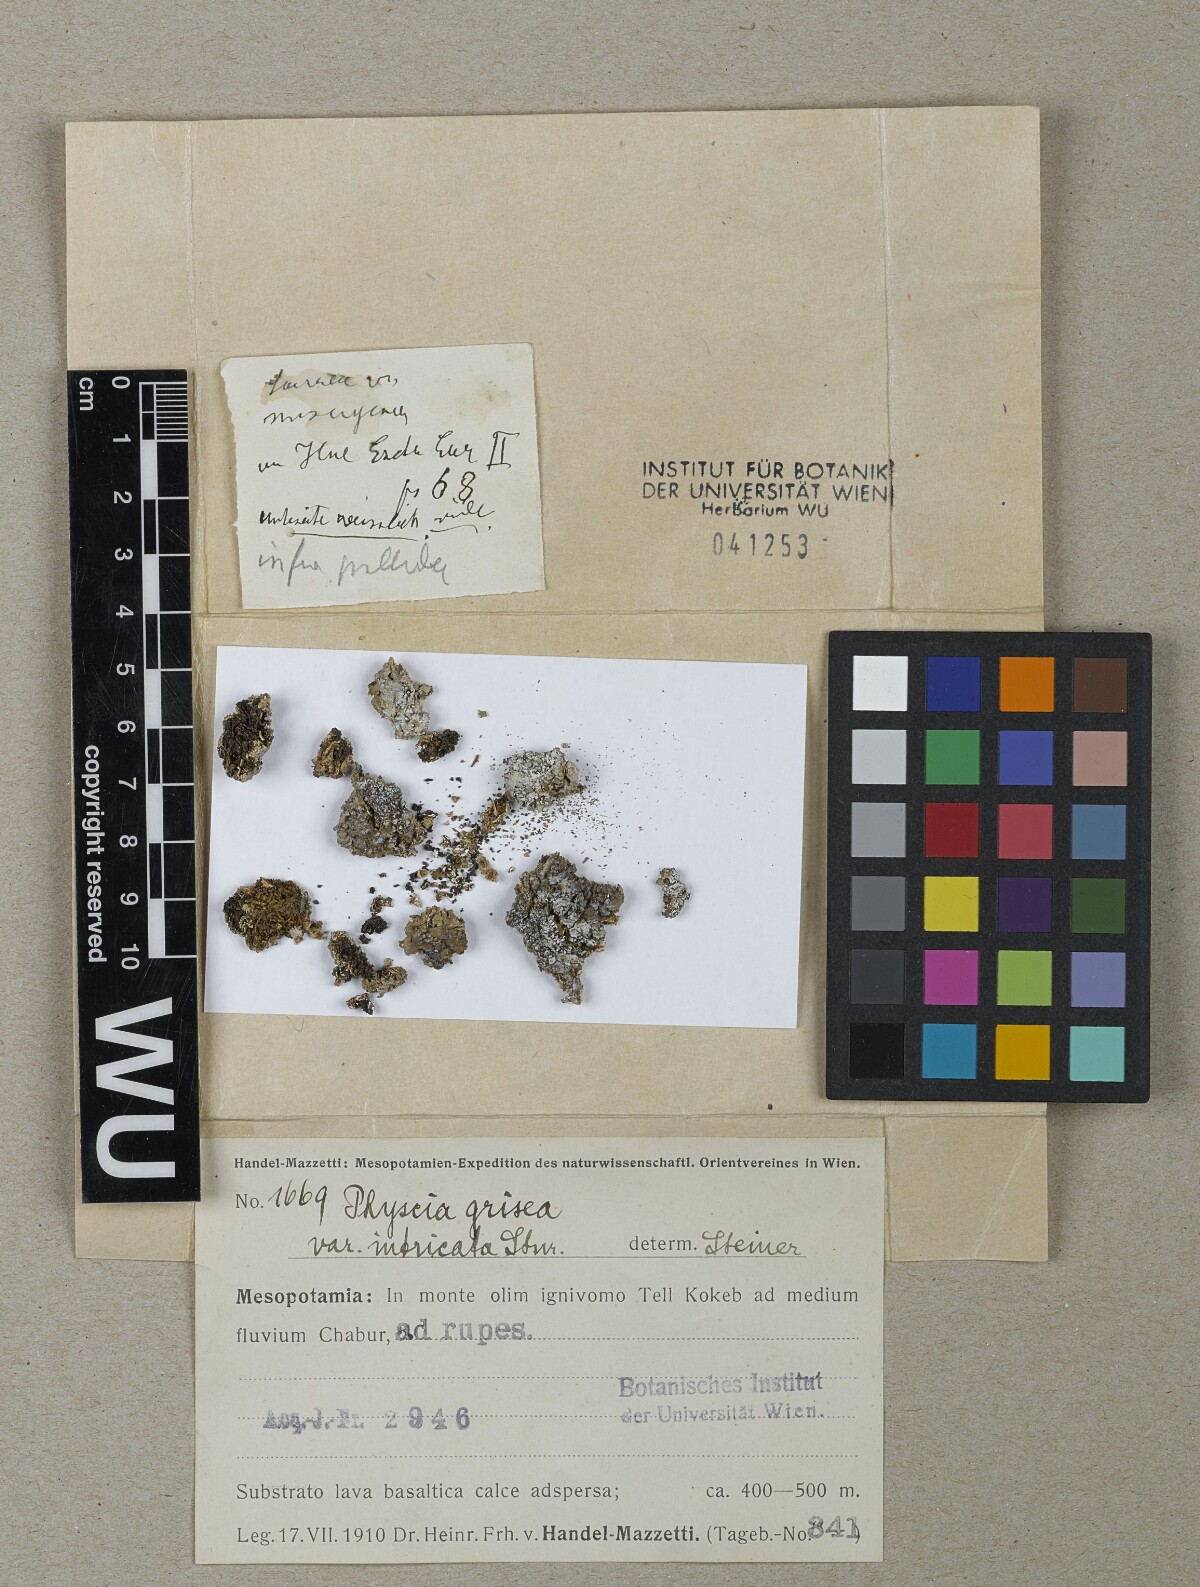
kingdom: Fungi
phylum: Ascomycota
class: Lecanoromycetes
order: Caliciales
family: Physciaceae
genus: Poeltonia
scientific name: Poeltonia grisea
